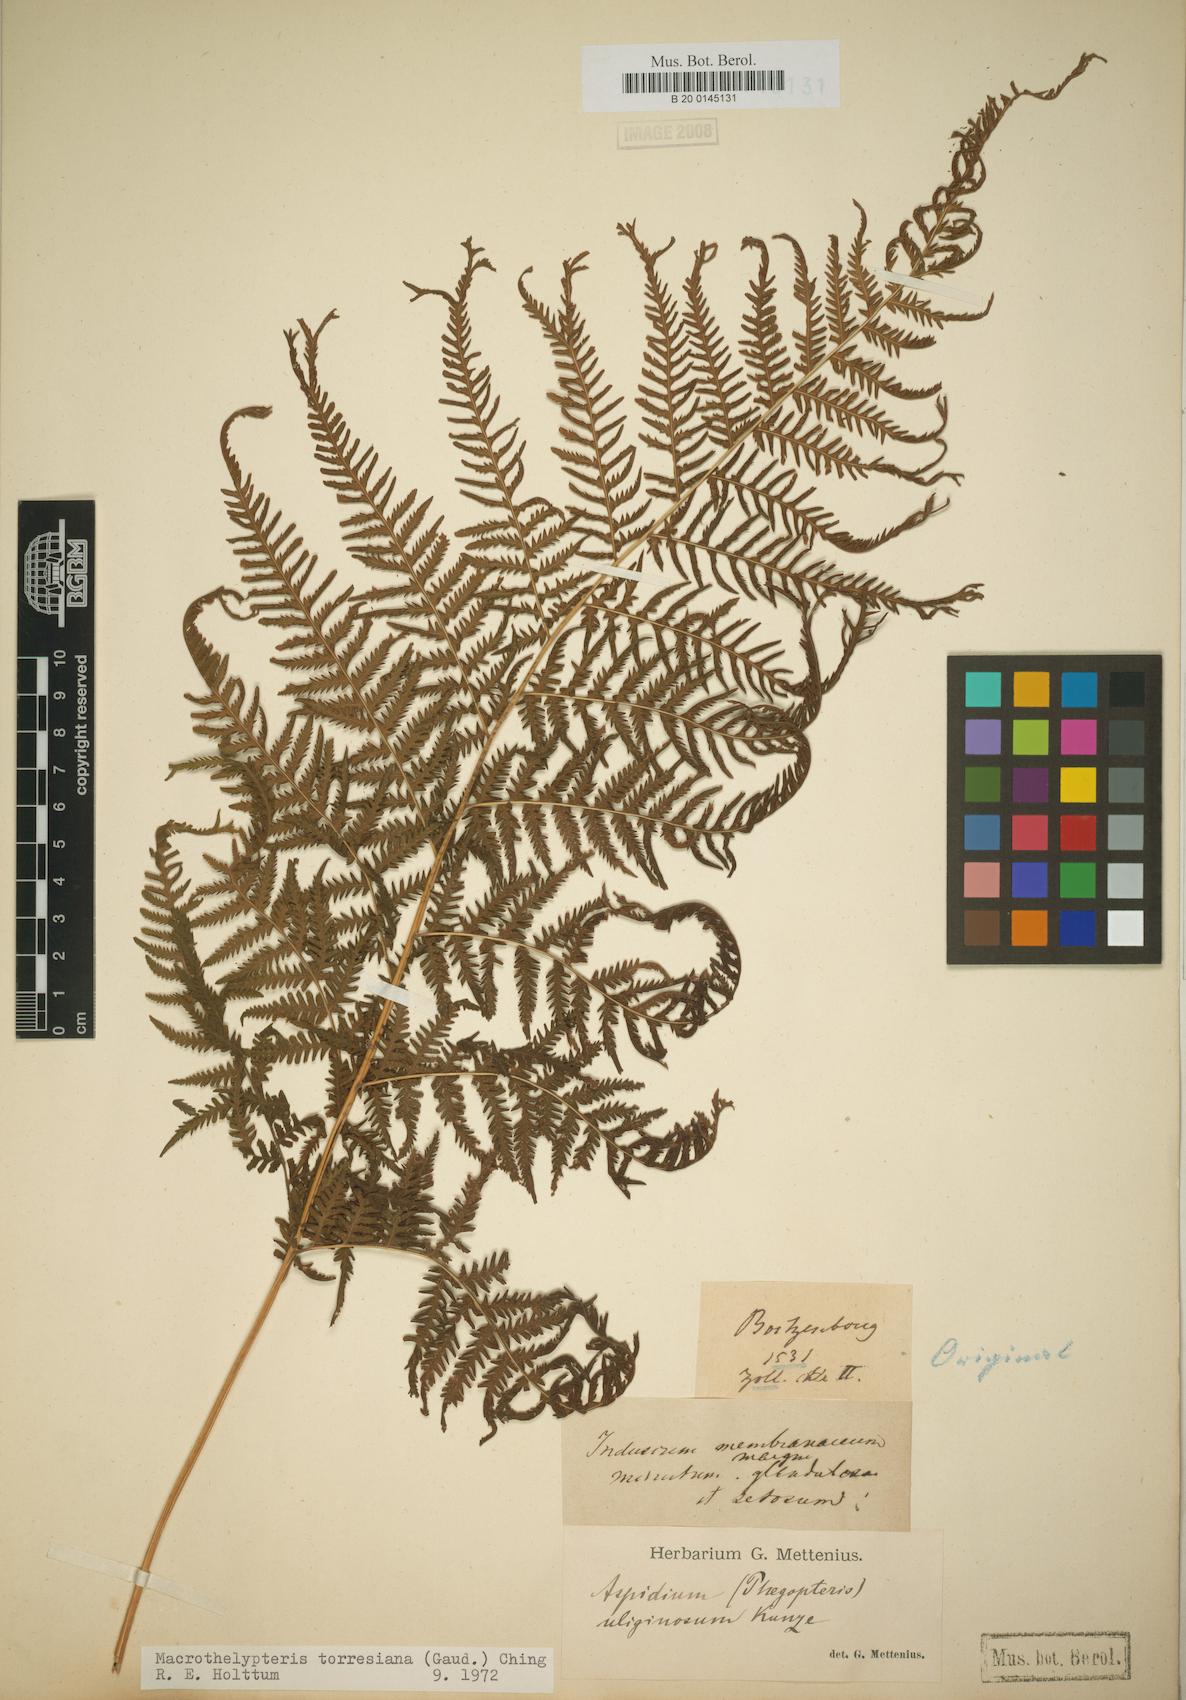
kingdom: Plantae
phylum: Tracheophyta
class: Polypodiopsida
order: Polypodiales
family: Thelypteridaceae
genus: Macrothelypteris
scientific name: Macrothelypteris torresiana
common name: Swordfern
